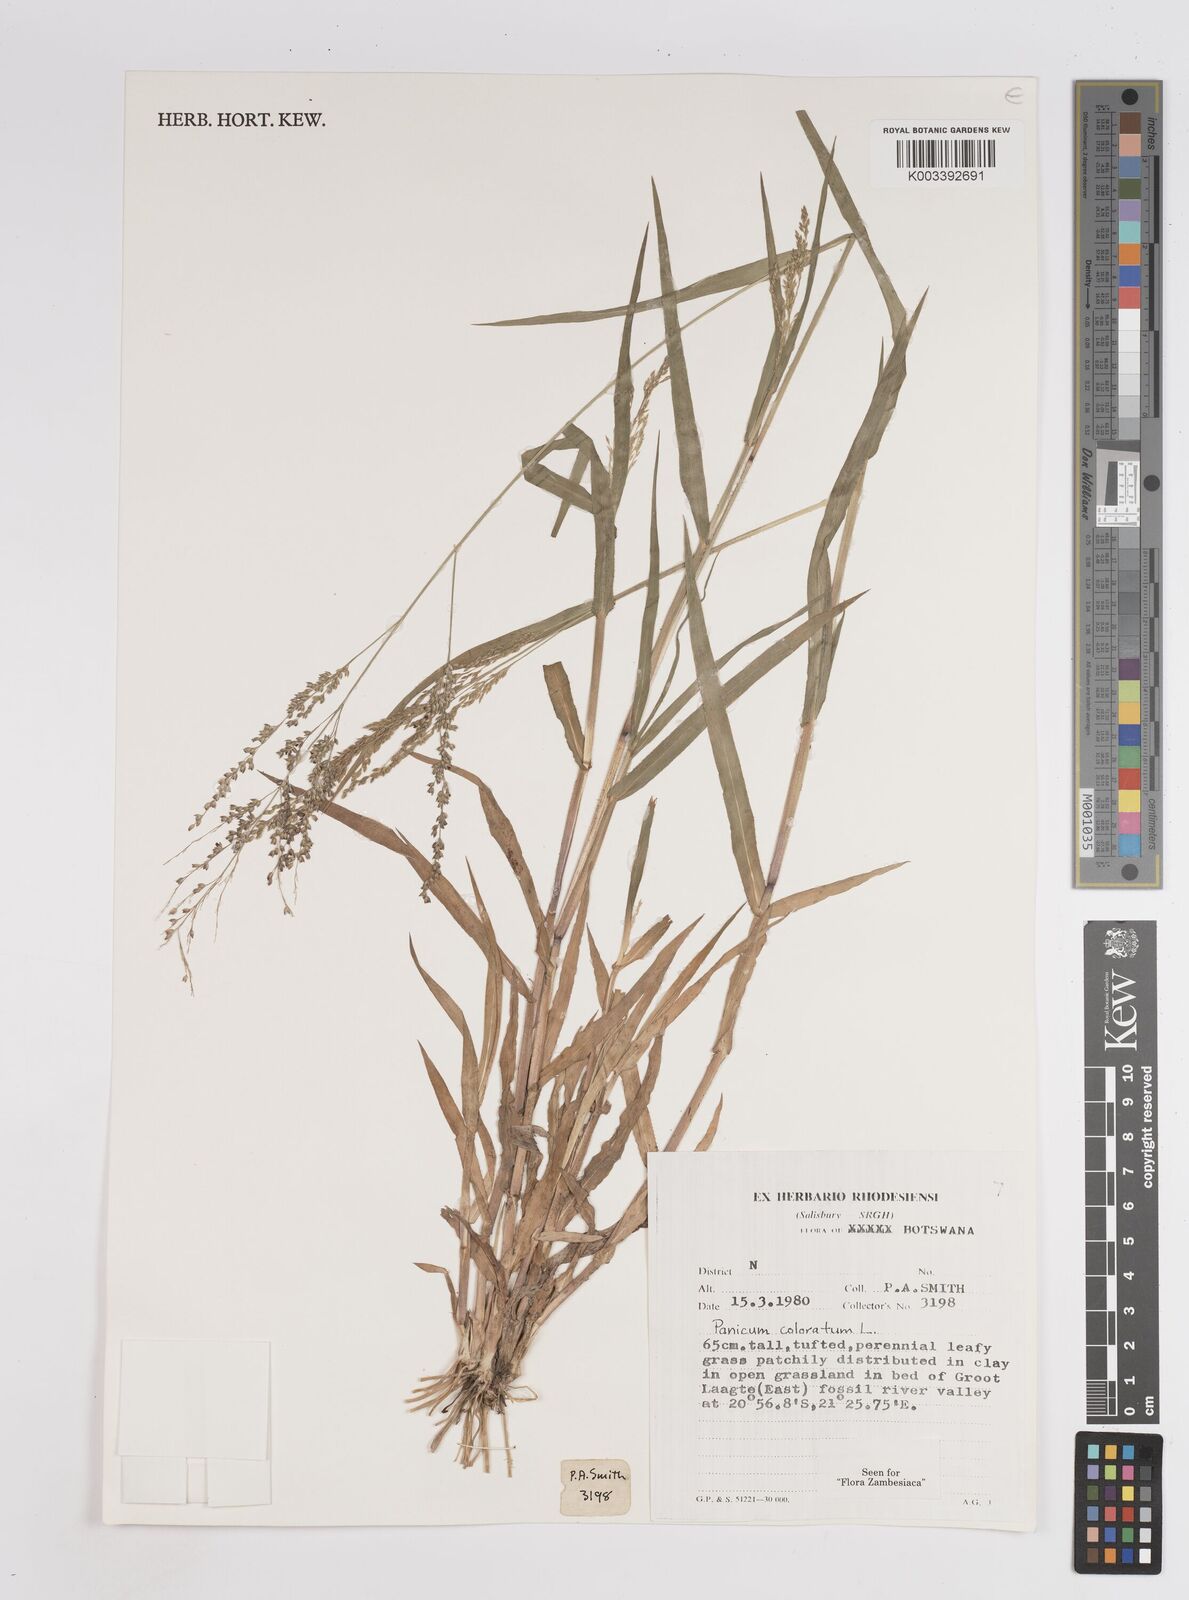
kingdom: Plantae
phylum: Tracheophyta
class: Liliopsida
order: Poales
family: Poaceae
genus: Panicum
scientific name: Panicum coloratum
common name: Kleingrass
